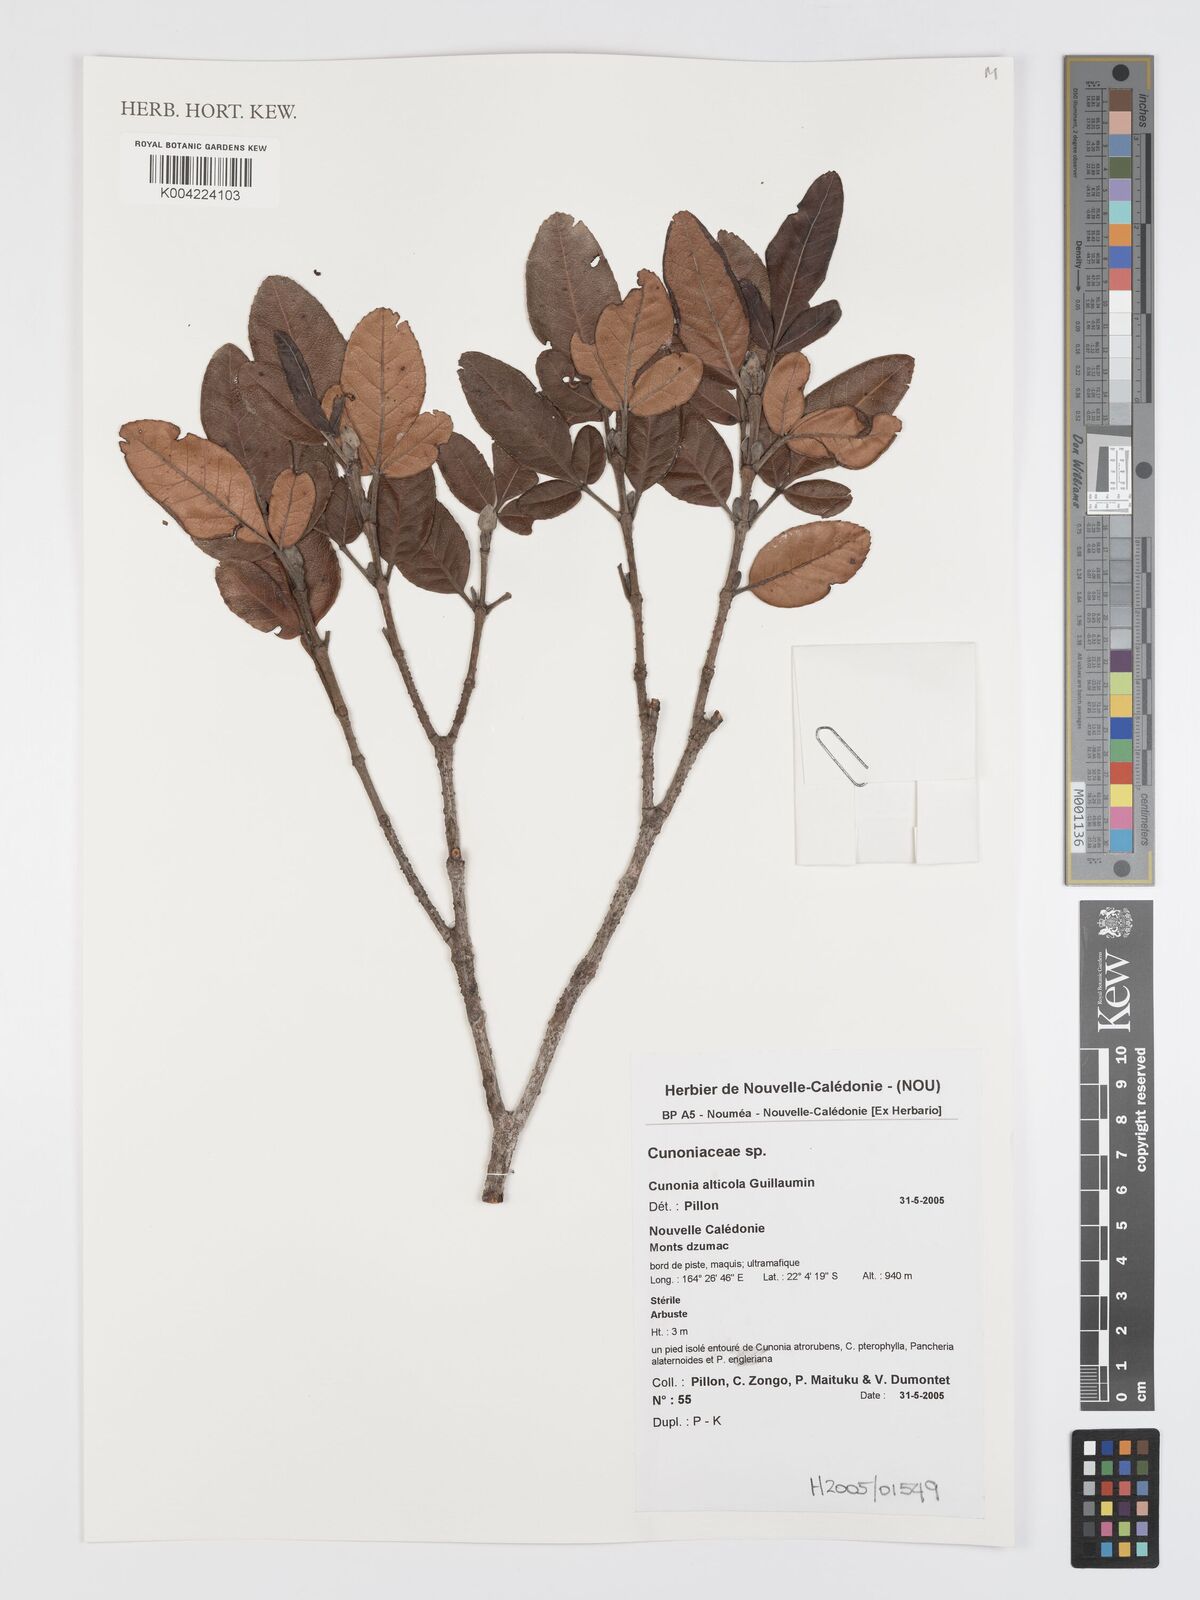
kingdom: Plantae
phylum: Tracheophyta
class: Magnoliopsida
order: Oxalidales
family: Cunoniaceae
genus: Cunonia
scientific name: Cunonia alticola
